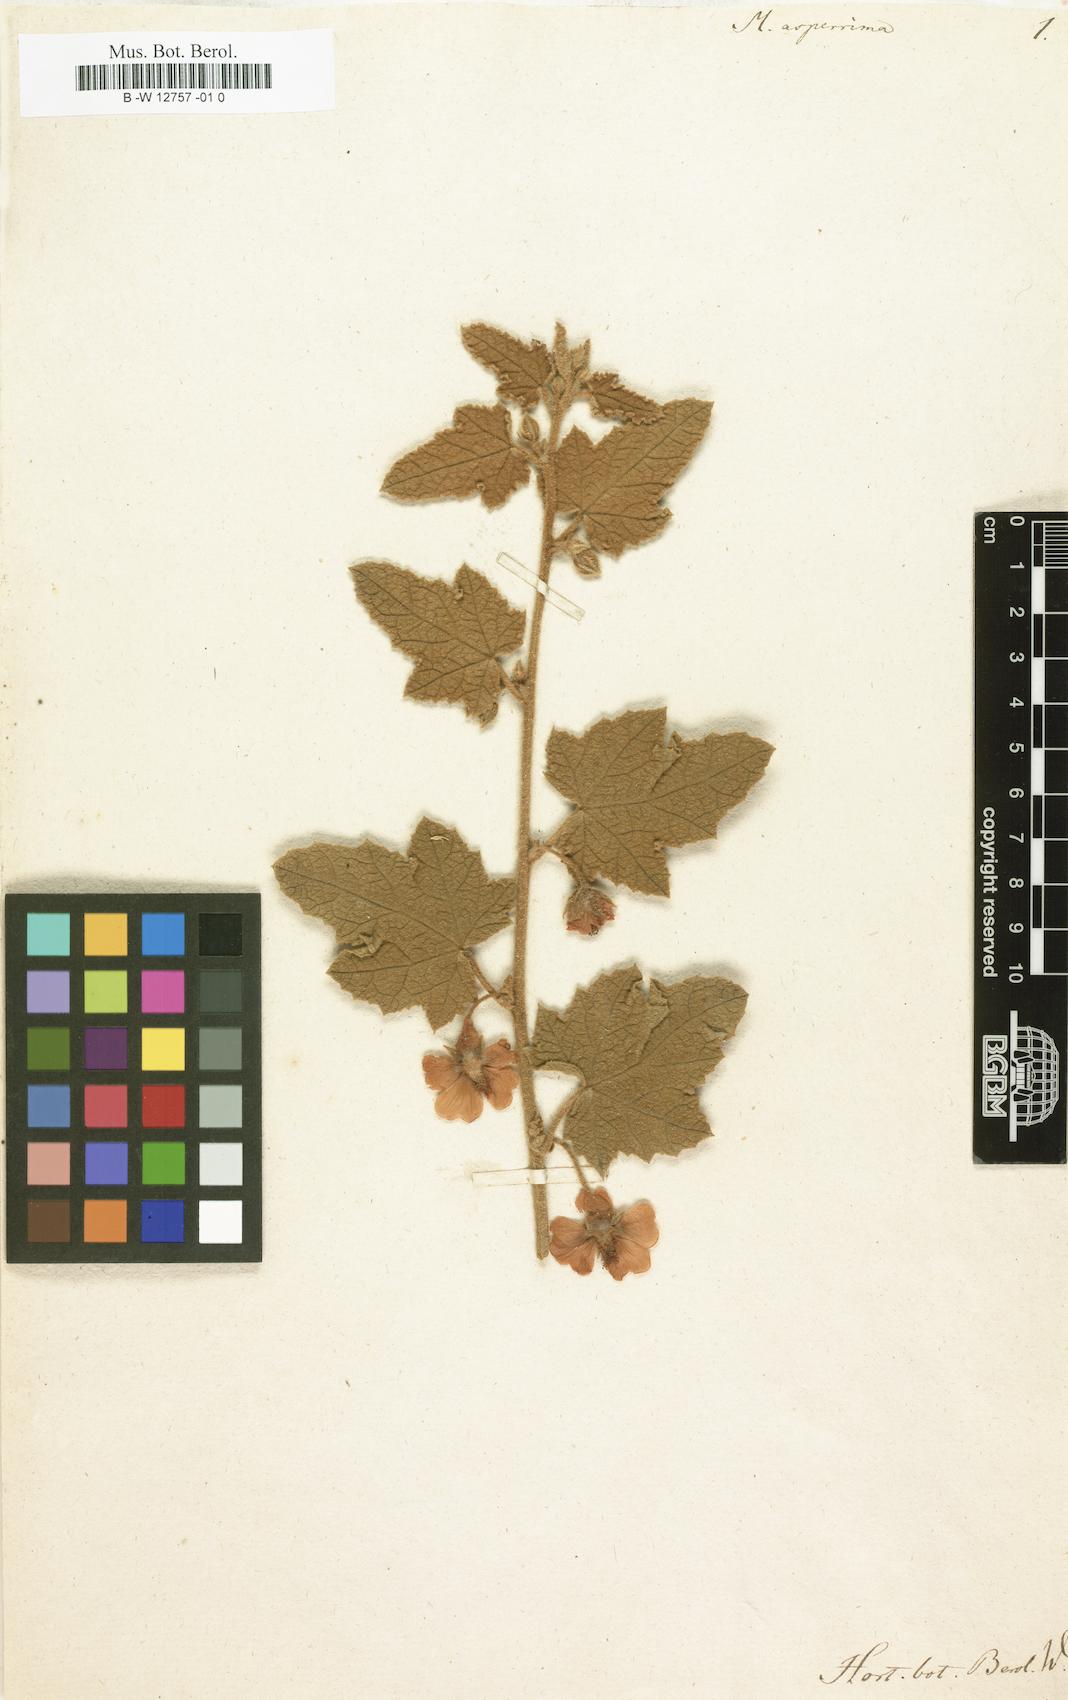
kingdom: Plantae
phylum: Tracheophyta
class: Magnoliopsida
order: Malvales
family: Malvaceae
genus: Anisodontea
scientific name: Anisodontea
